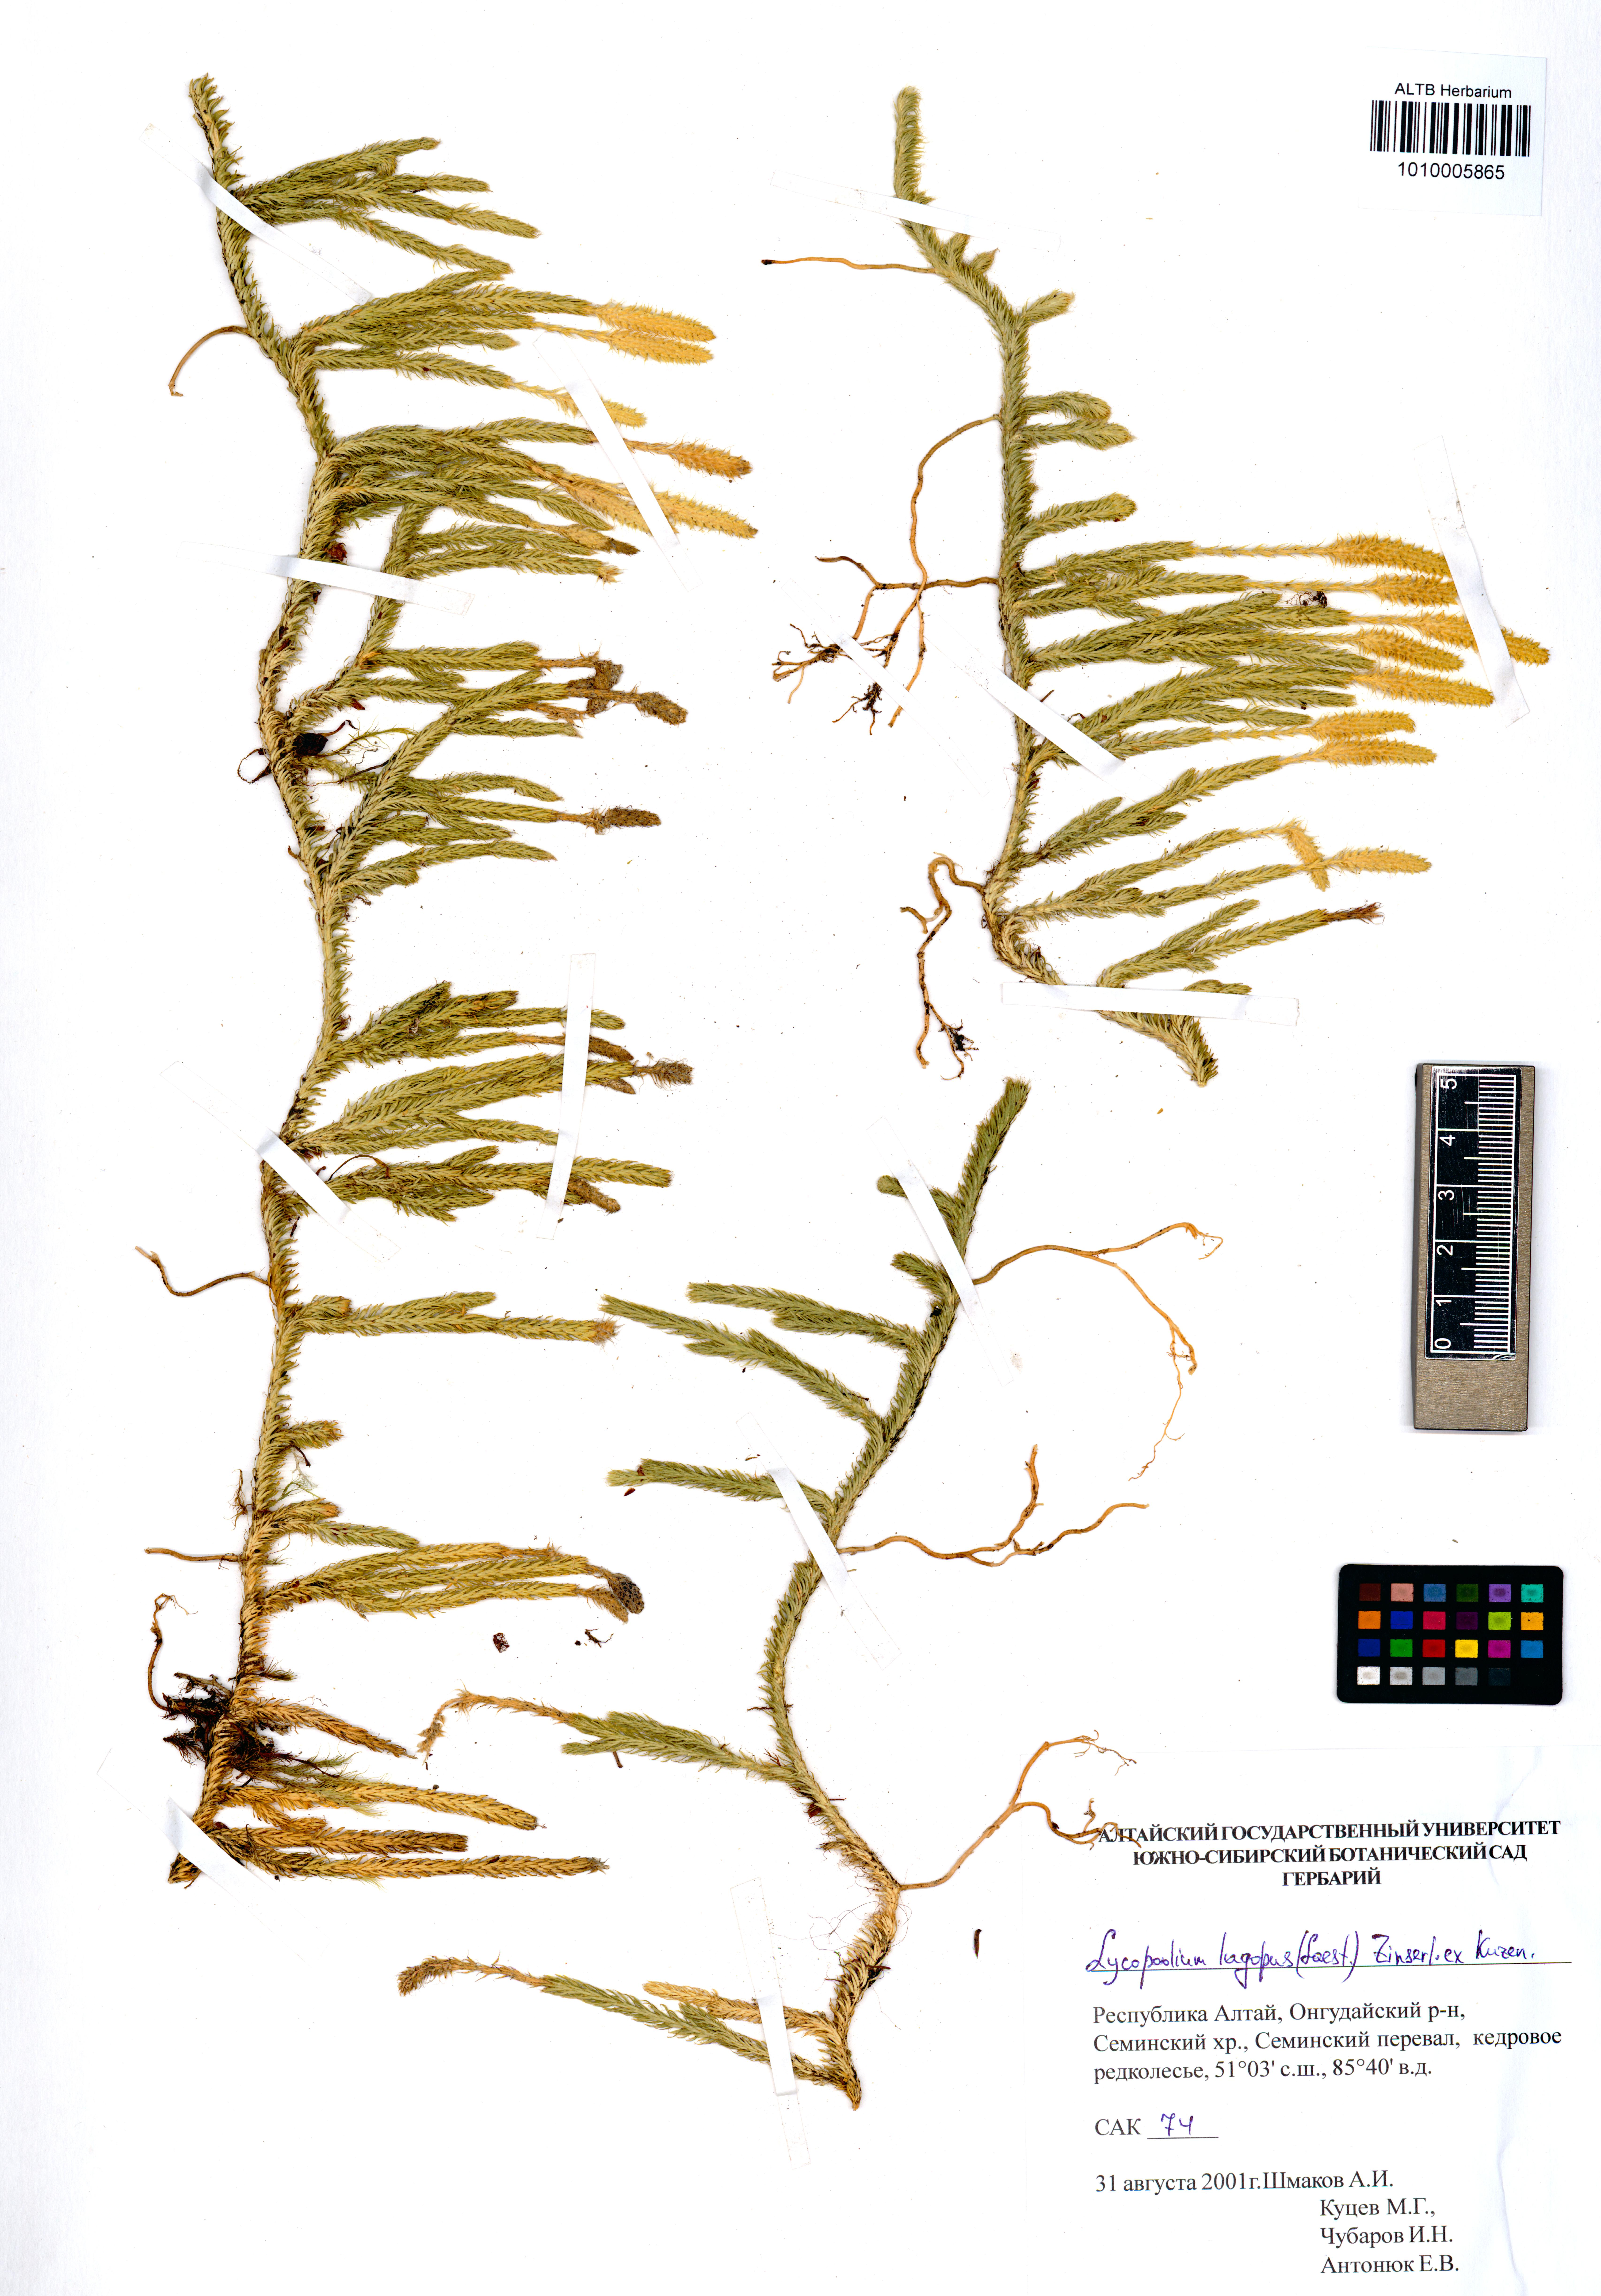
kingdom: Plantae
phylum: Tracheophyta
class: Lycopodiopsida
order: Lycopodiales
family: Lycopodiaceae
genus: Lycopodium
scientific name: Lycopodium lagopus
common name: One-cone clubmoss
